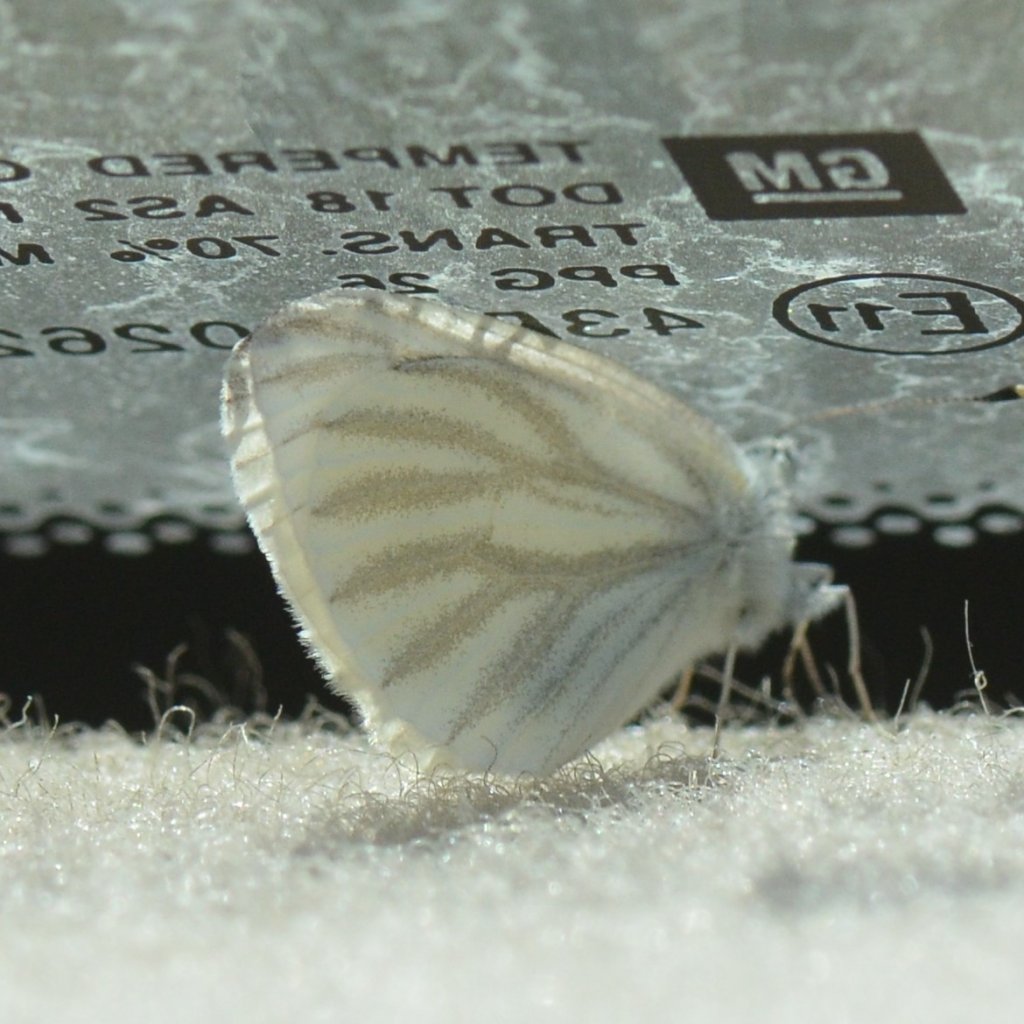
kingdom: Animalia
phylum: Arthropoda
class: Insecta
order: Lepidoptera
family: Pieridae
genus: Pieris
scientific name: Pieris virginiensis
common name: West Virginia White
